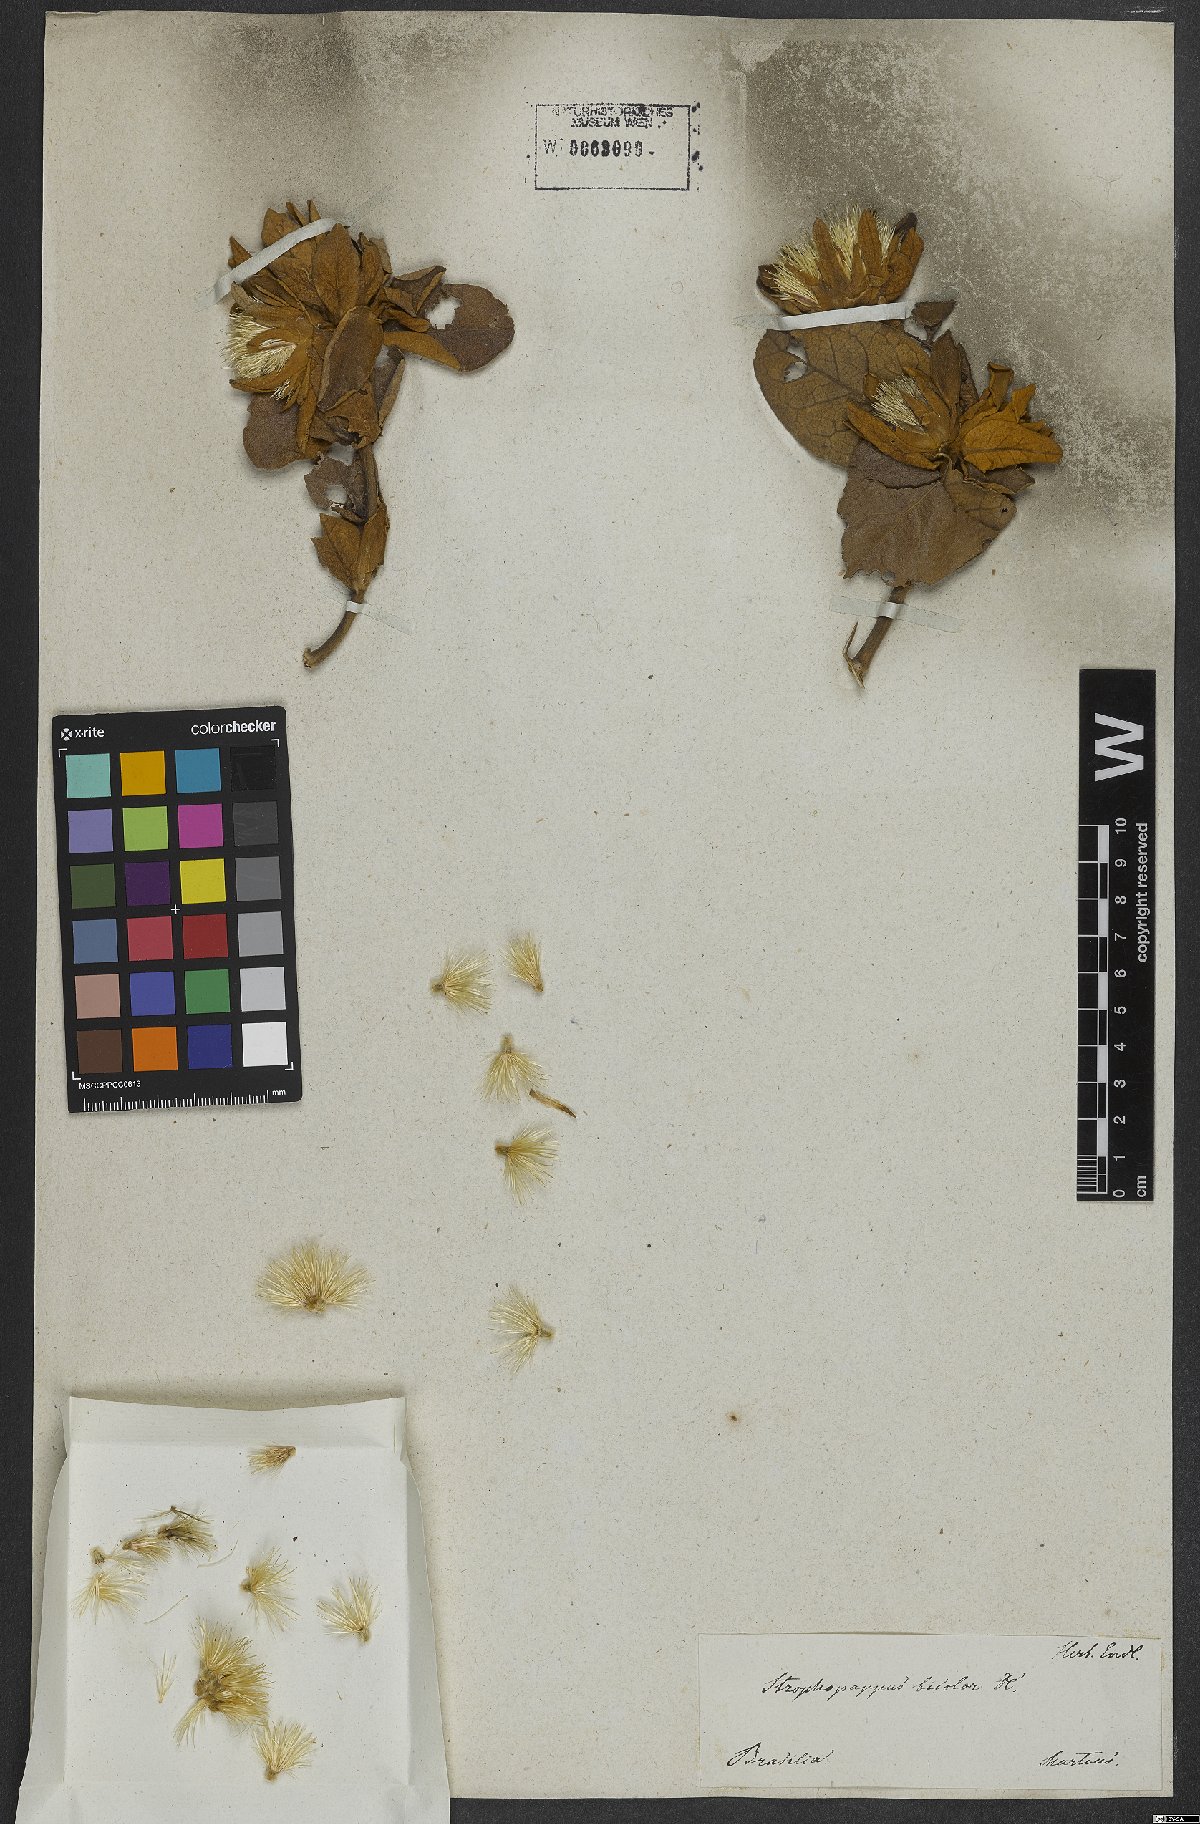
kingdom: Plantae
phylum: Tracheophyta
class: Magnoliopsida
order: Asterales
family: Asteraceae
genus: Trixis
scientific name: Trixis glutinosa
